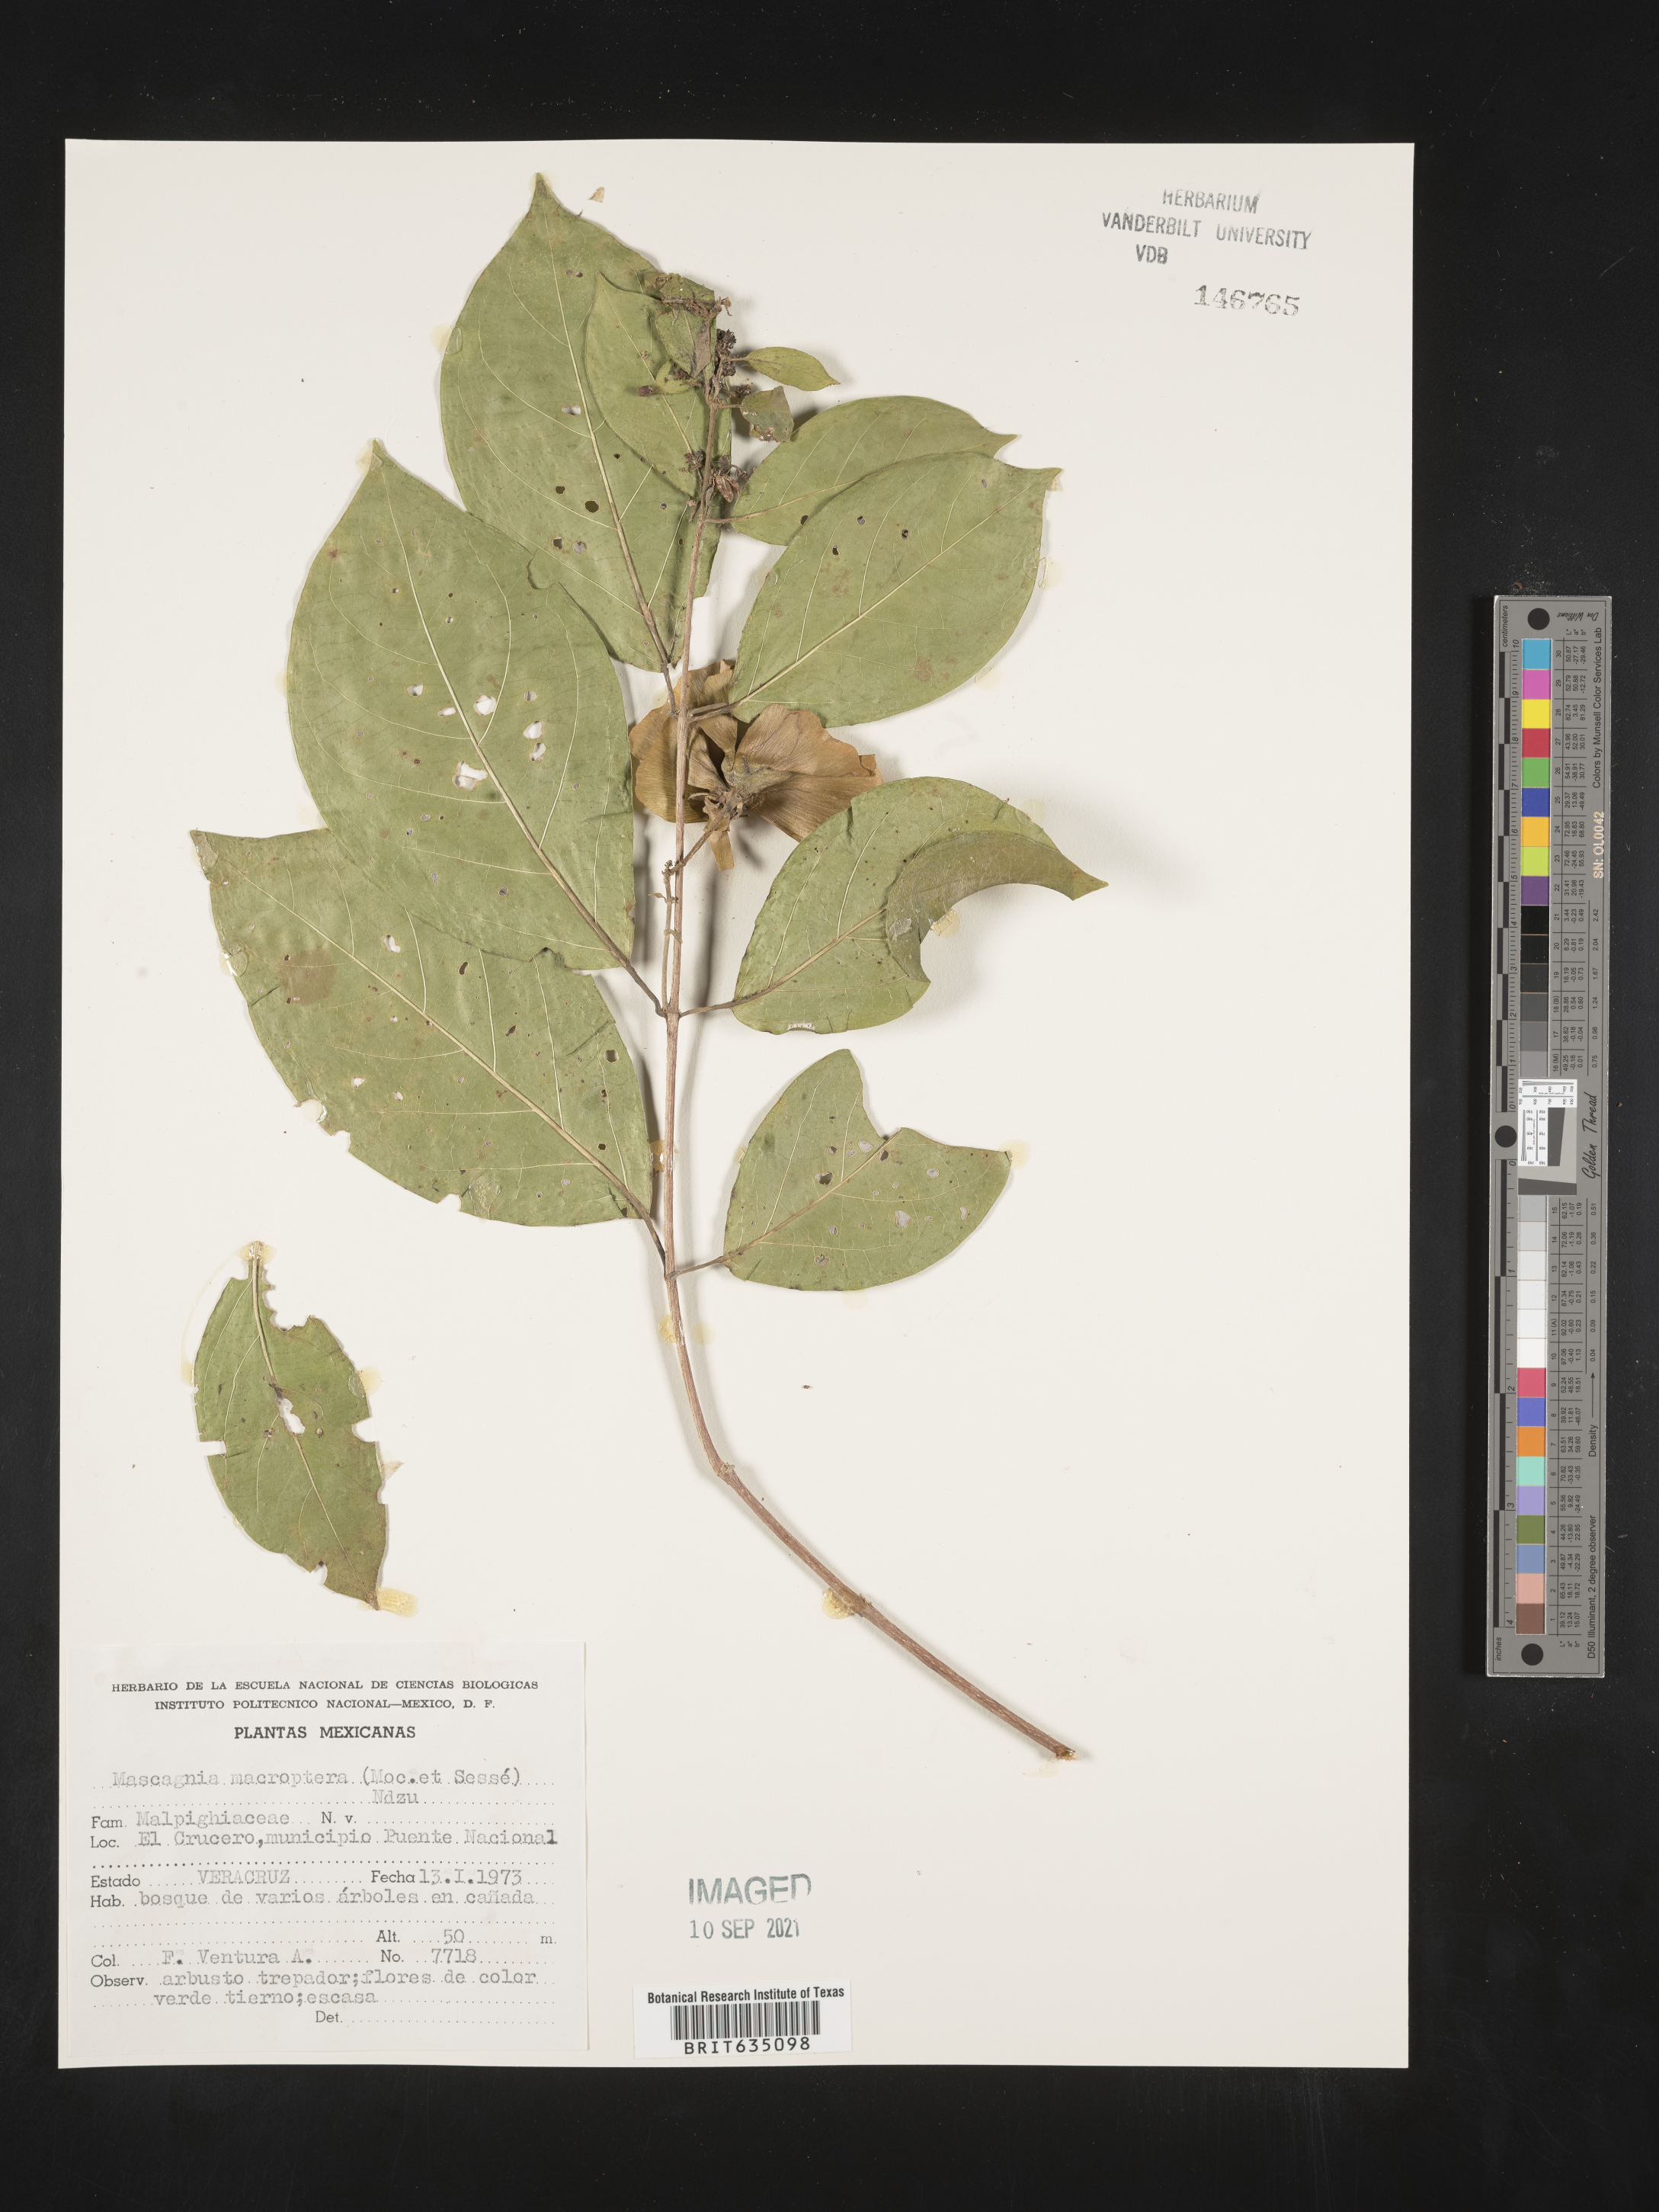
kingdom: Plantae
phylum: Tracheophyta
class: Magnoliopsida
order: Malpighiales
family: Malpighiaceae
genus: Mascagnia
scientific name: Mascagnia
